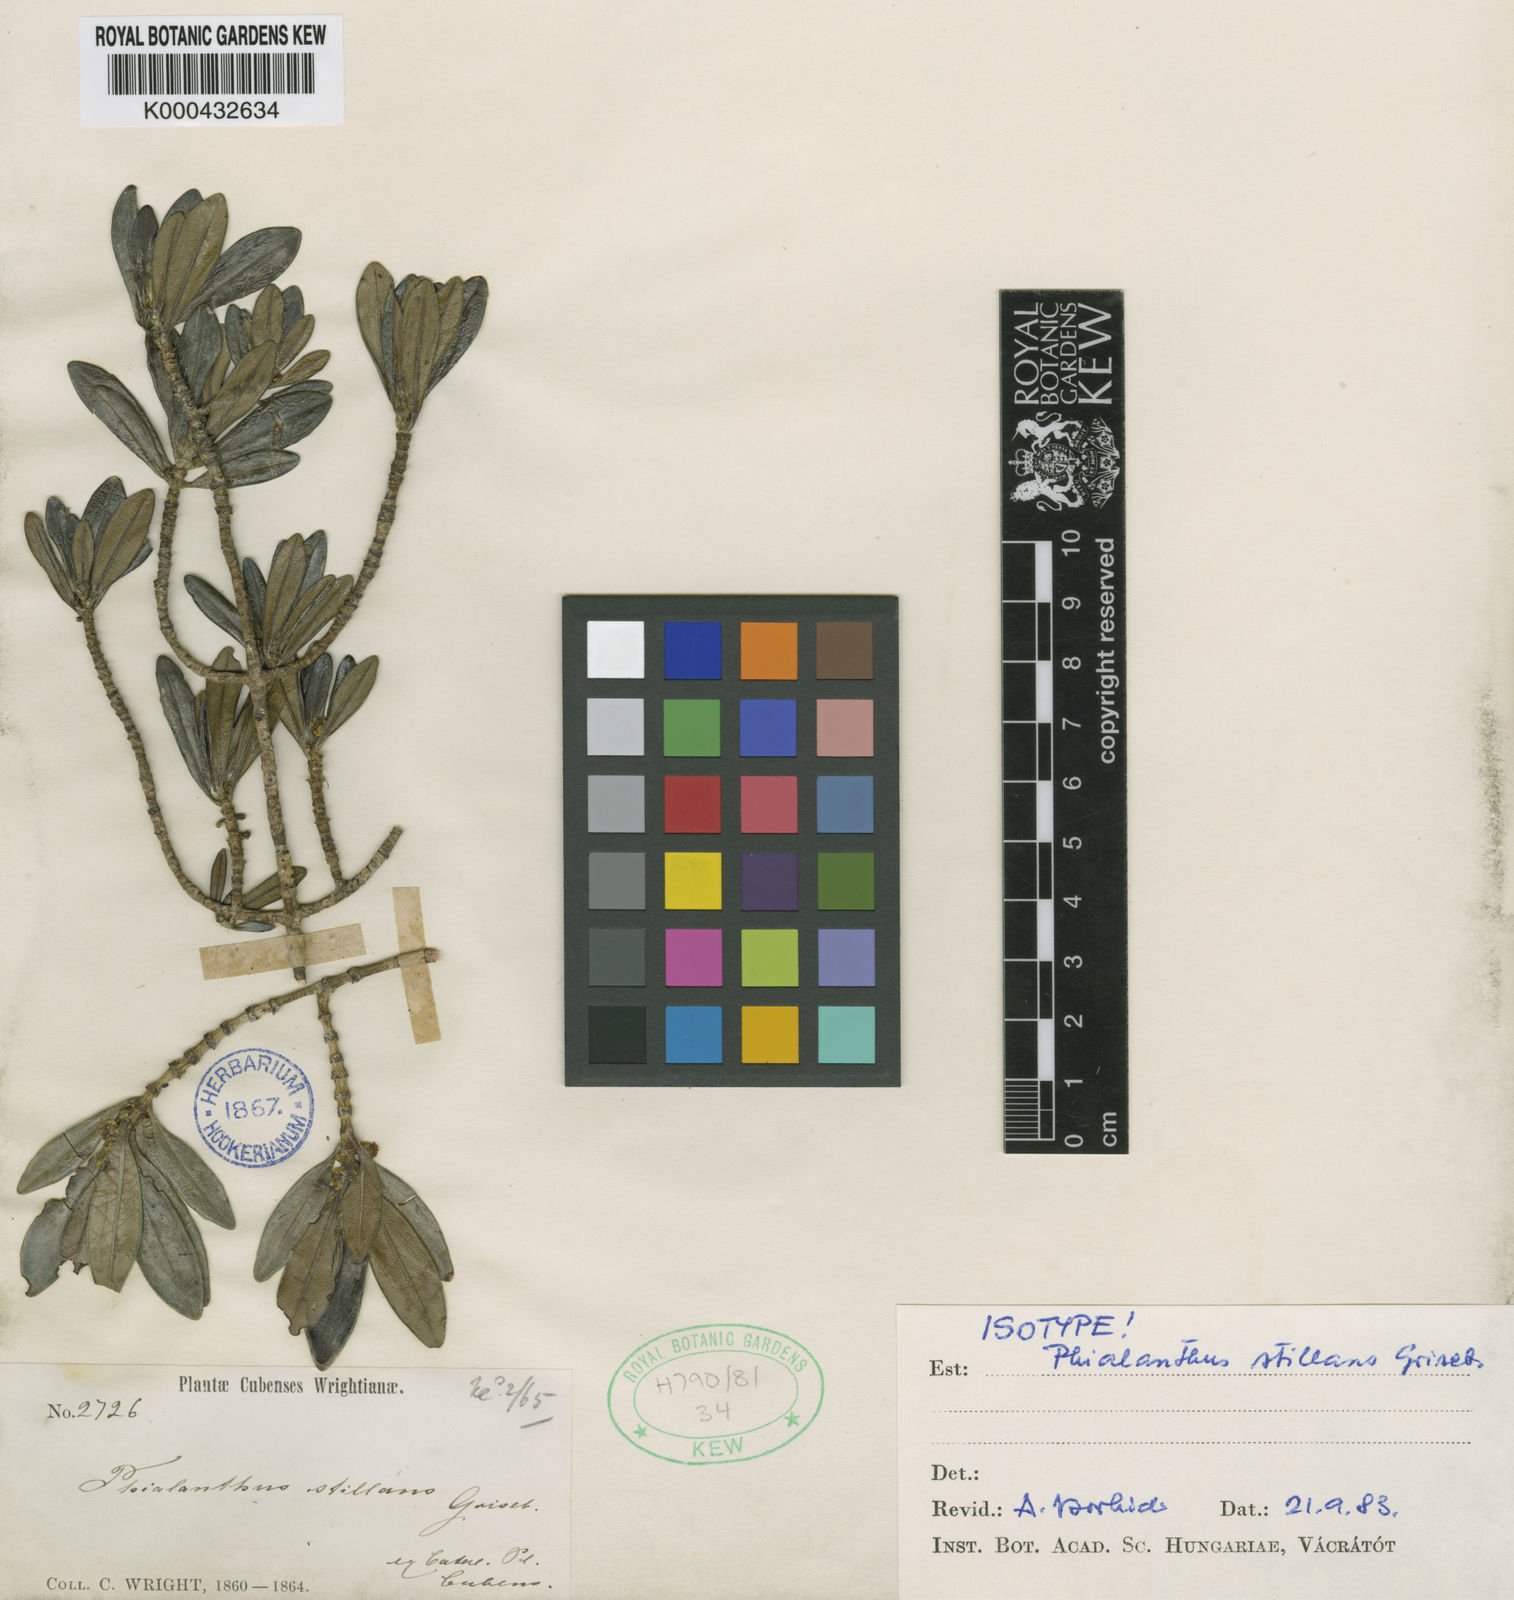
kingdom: Plantae
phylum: Tracheophyta
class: Magnoliopsida
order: Gentianales
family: Rubiaceae
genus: Phialanthus
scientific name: Phialanthus stillans
